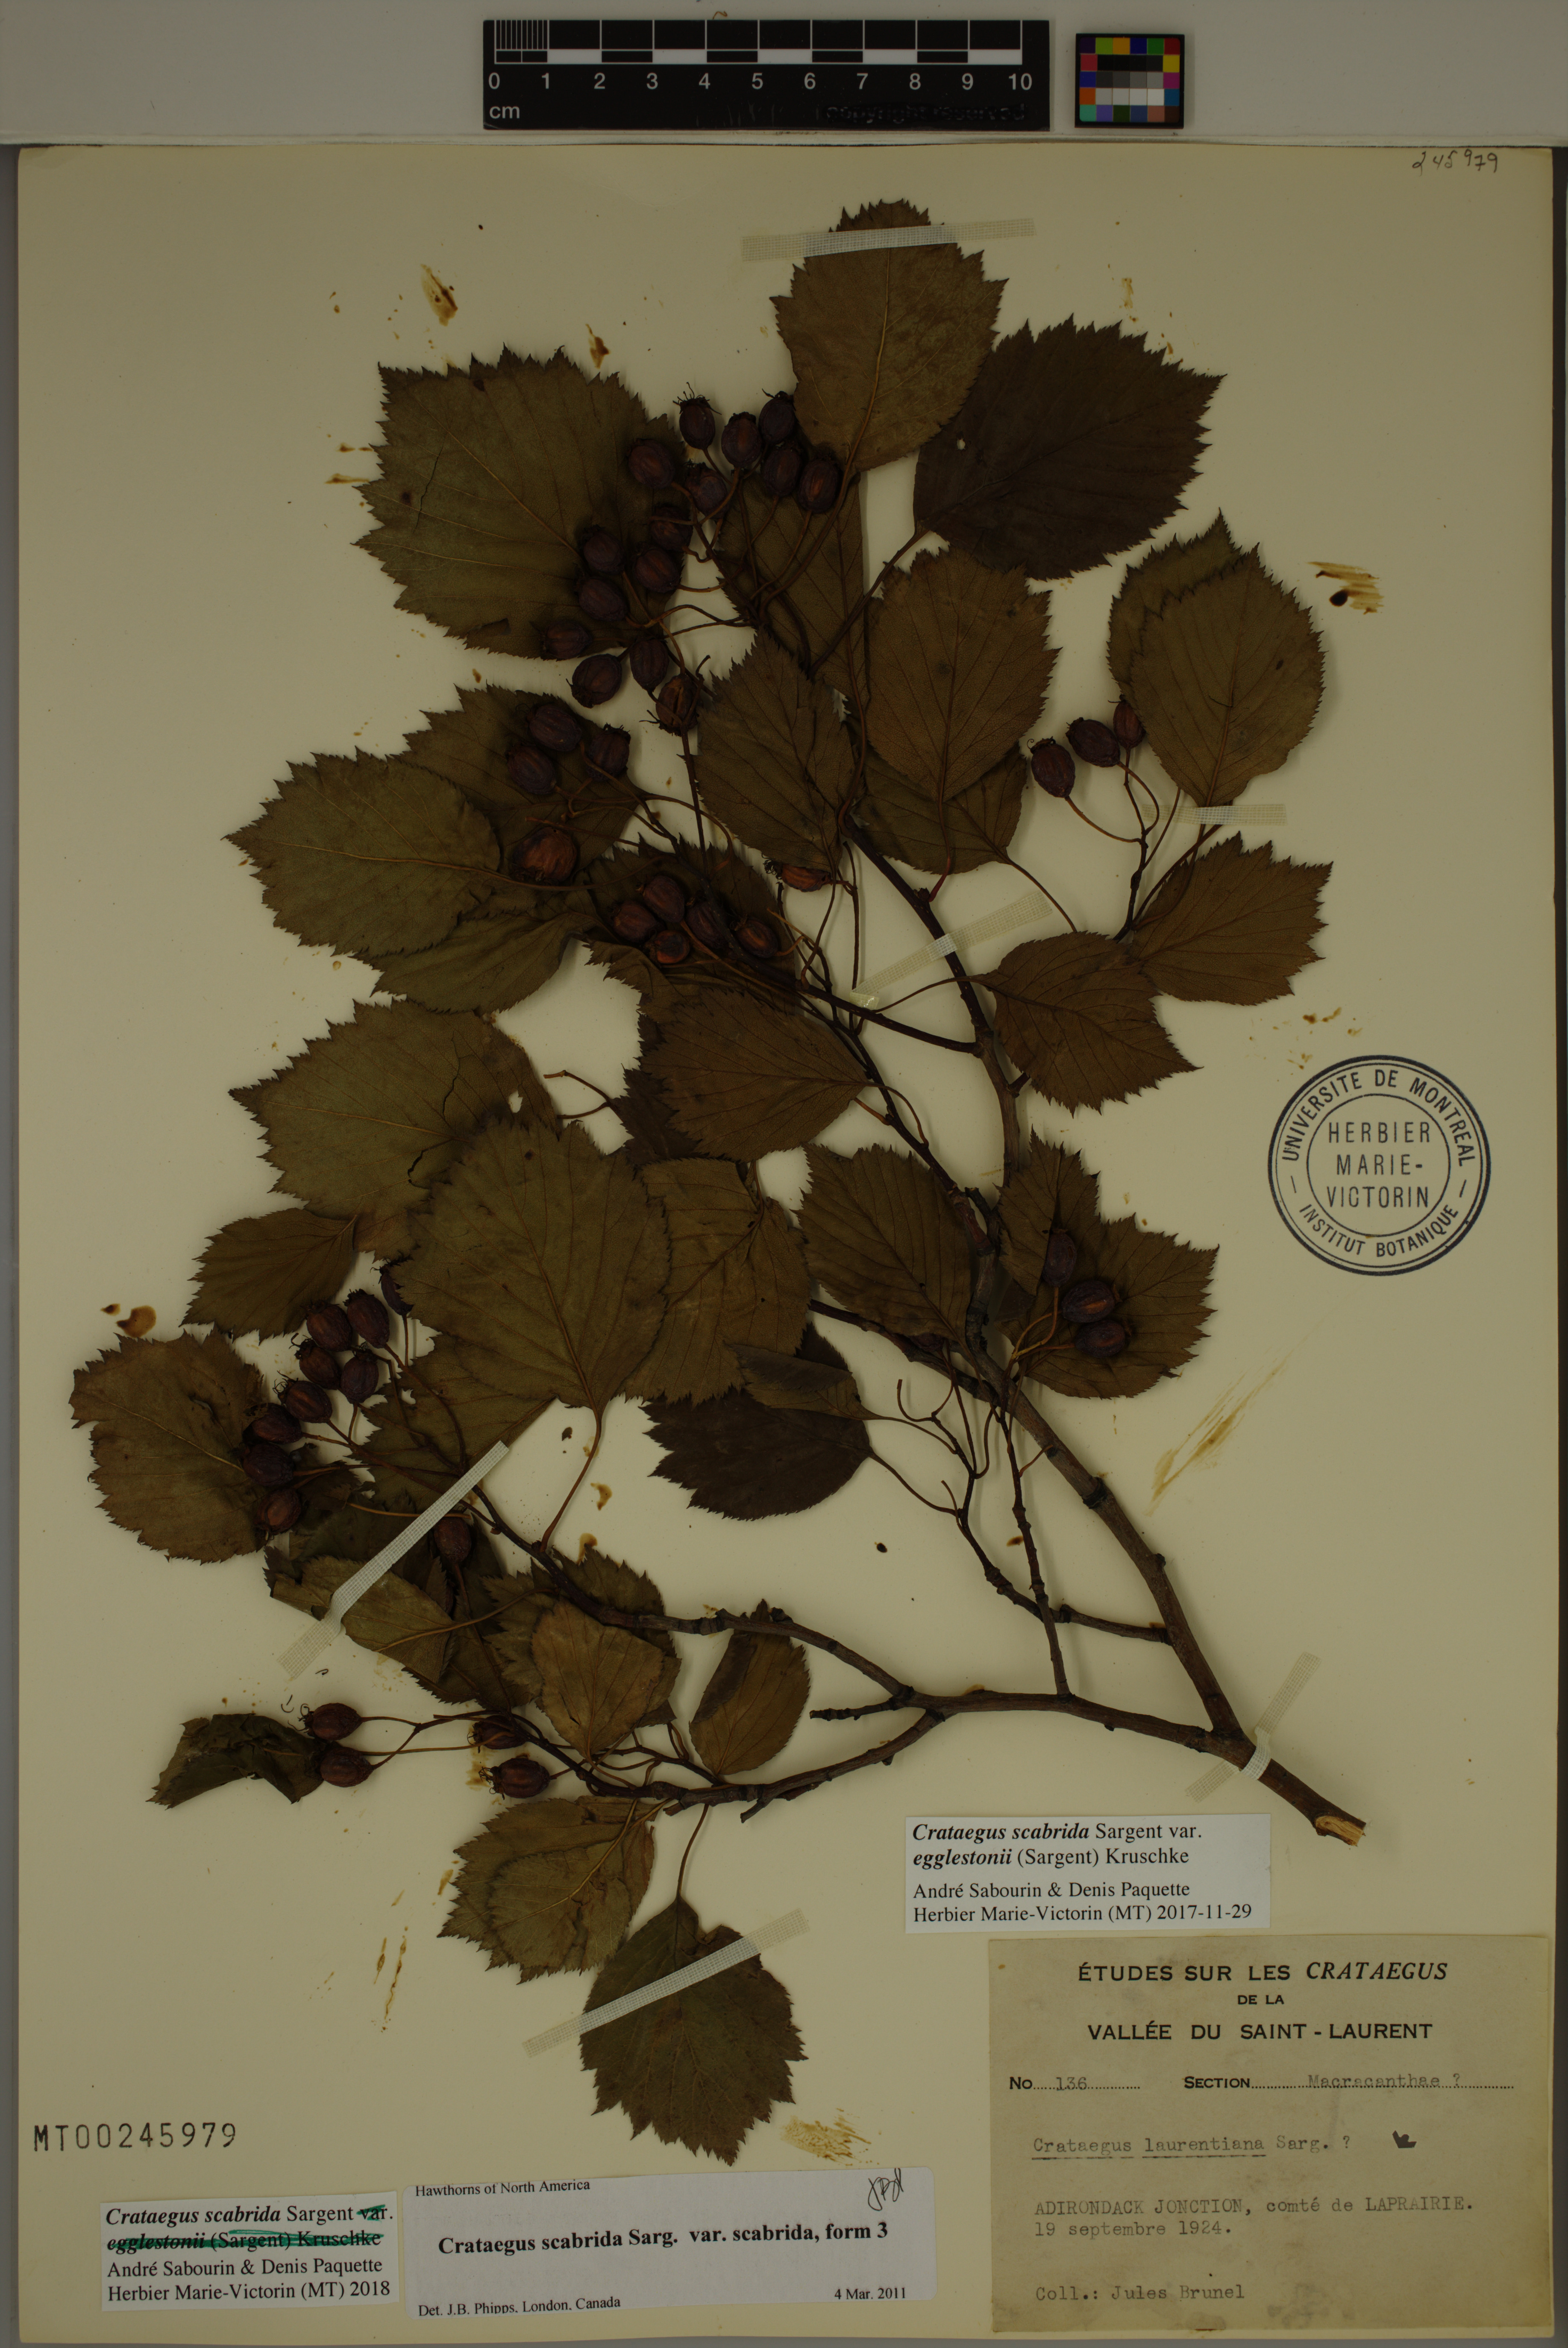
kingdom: Plantae
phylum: Tracheophyta
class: Magnoliopsida
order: Rosales
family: Rosaceae
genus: Crataegus
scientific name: Crataegus scabrida
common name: Rough hawthorn
